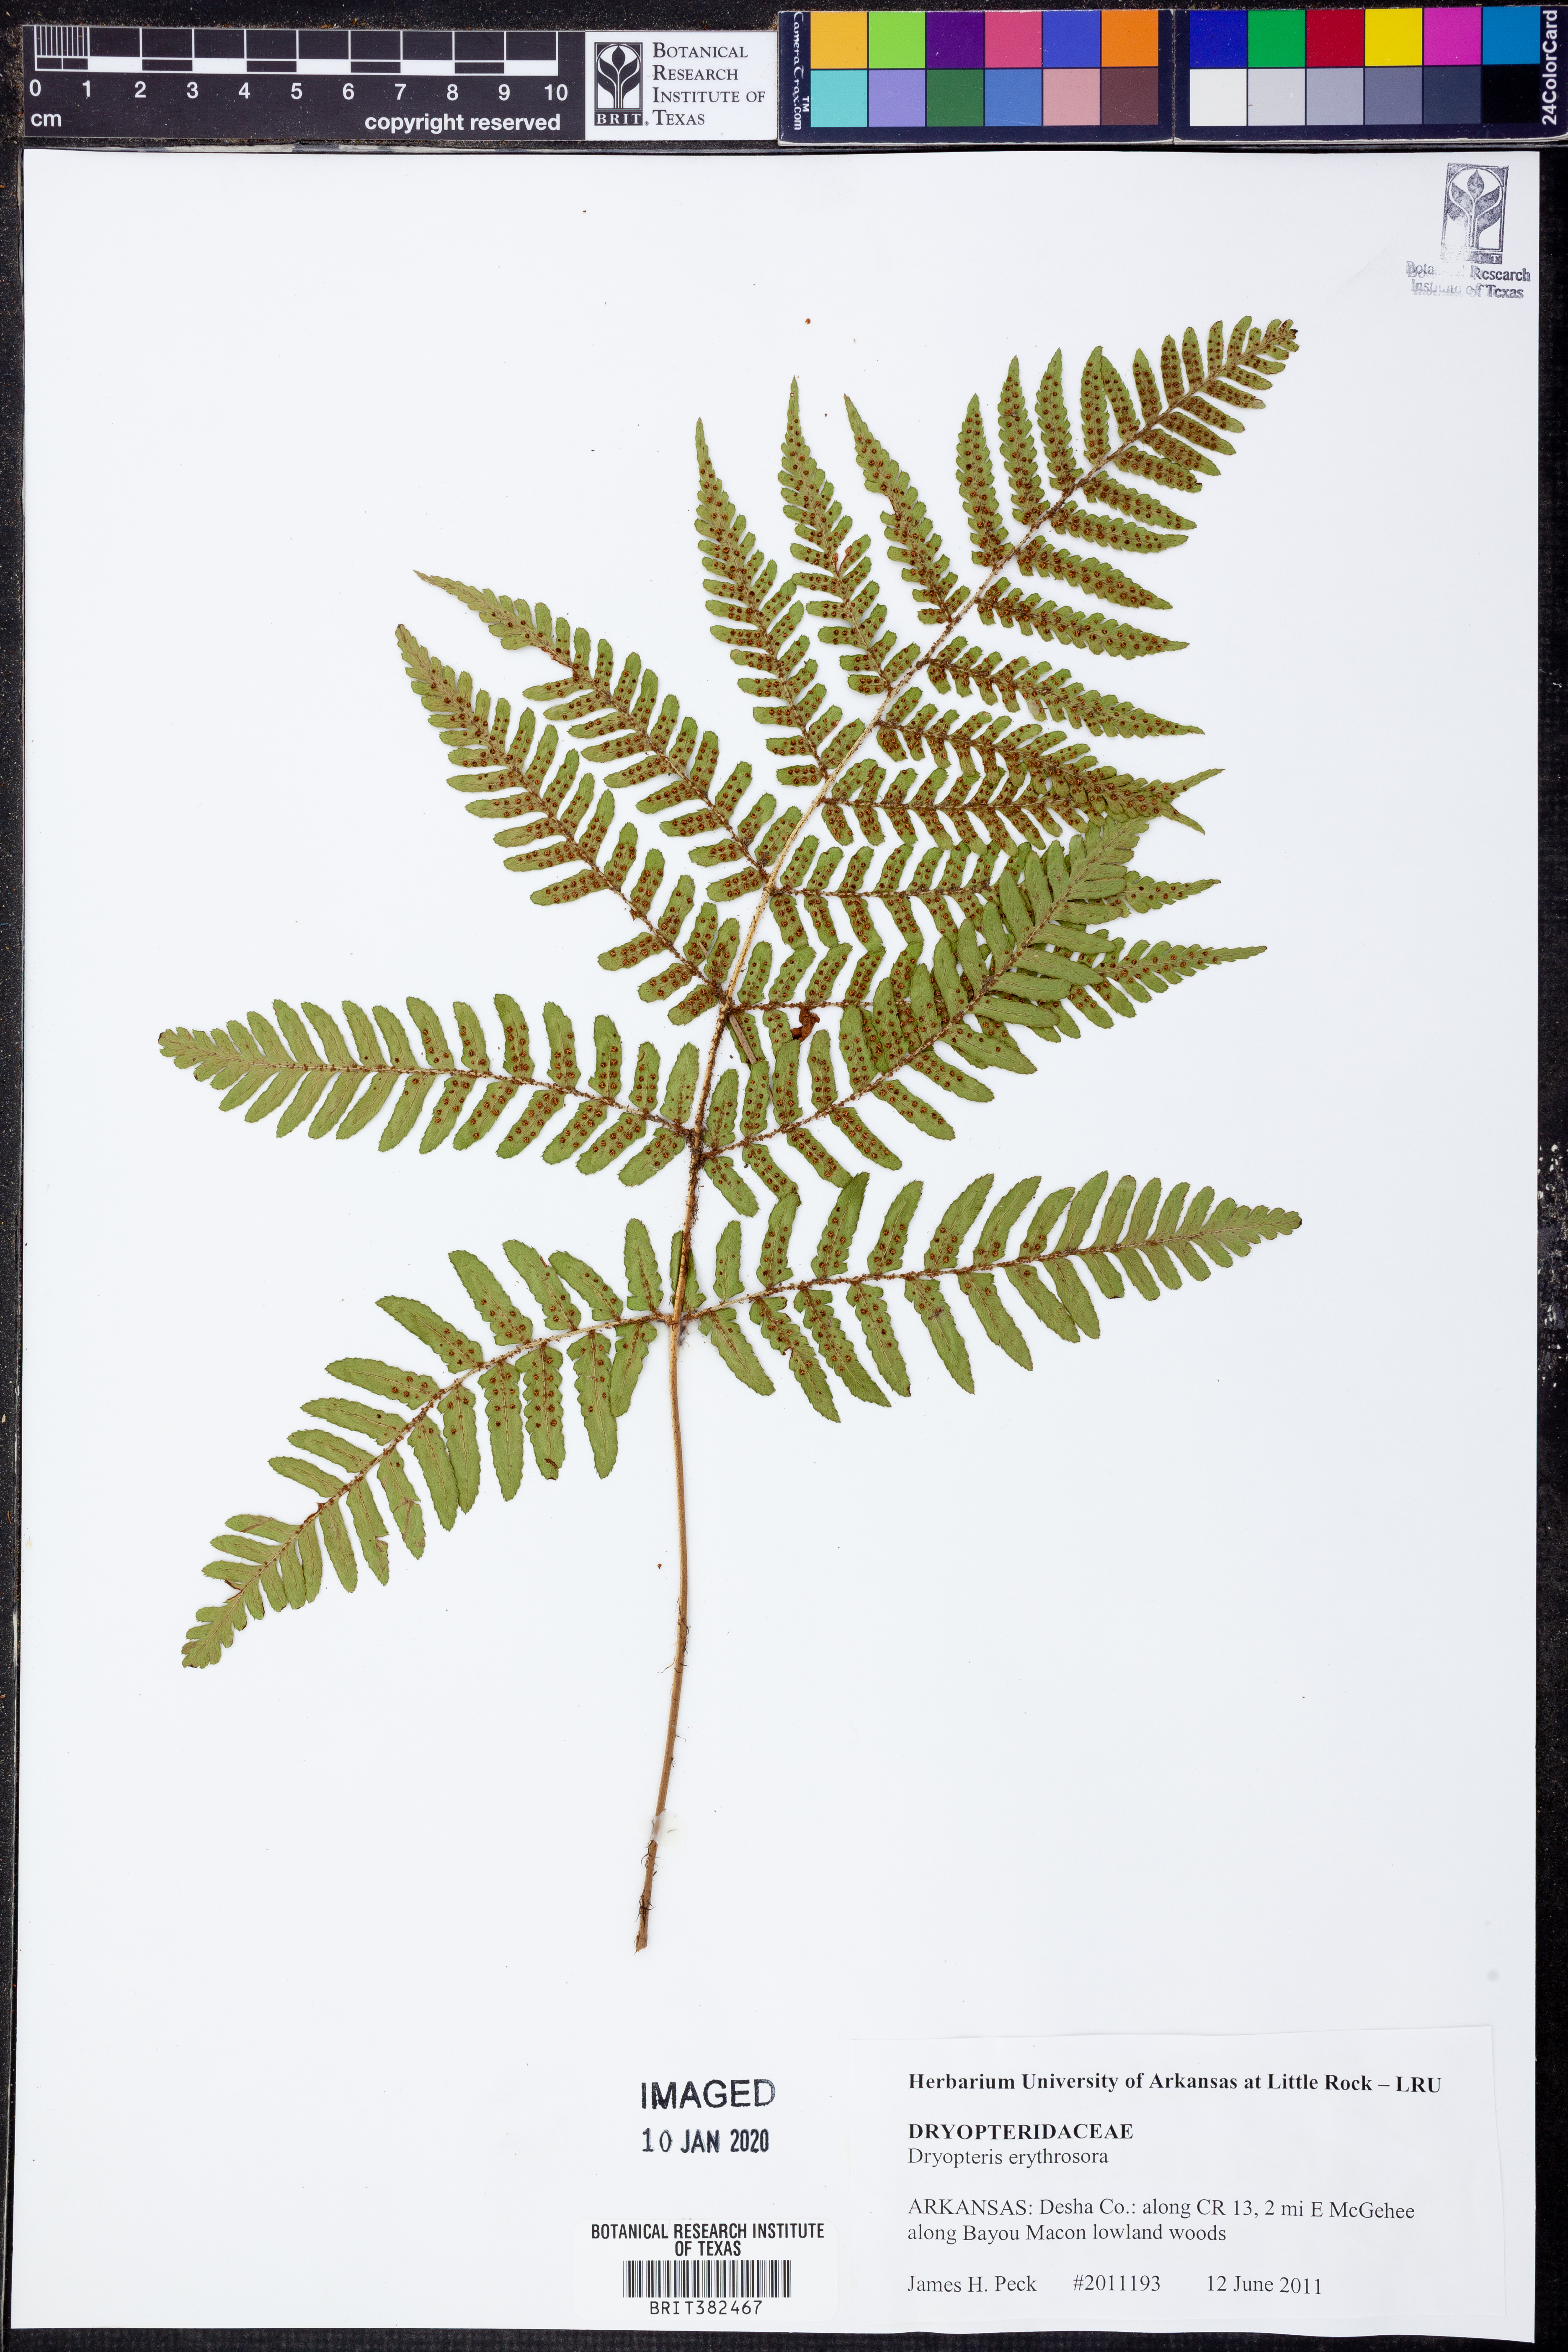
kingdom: Plantae
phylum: Tracheophyta
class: Polypodiopsida
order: Polypodiales
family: Dryopteridaceae
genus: Dryopteris
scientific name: Dryopteris erythrosora
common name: Autumn fern
